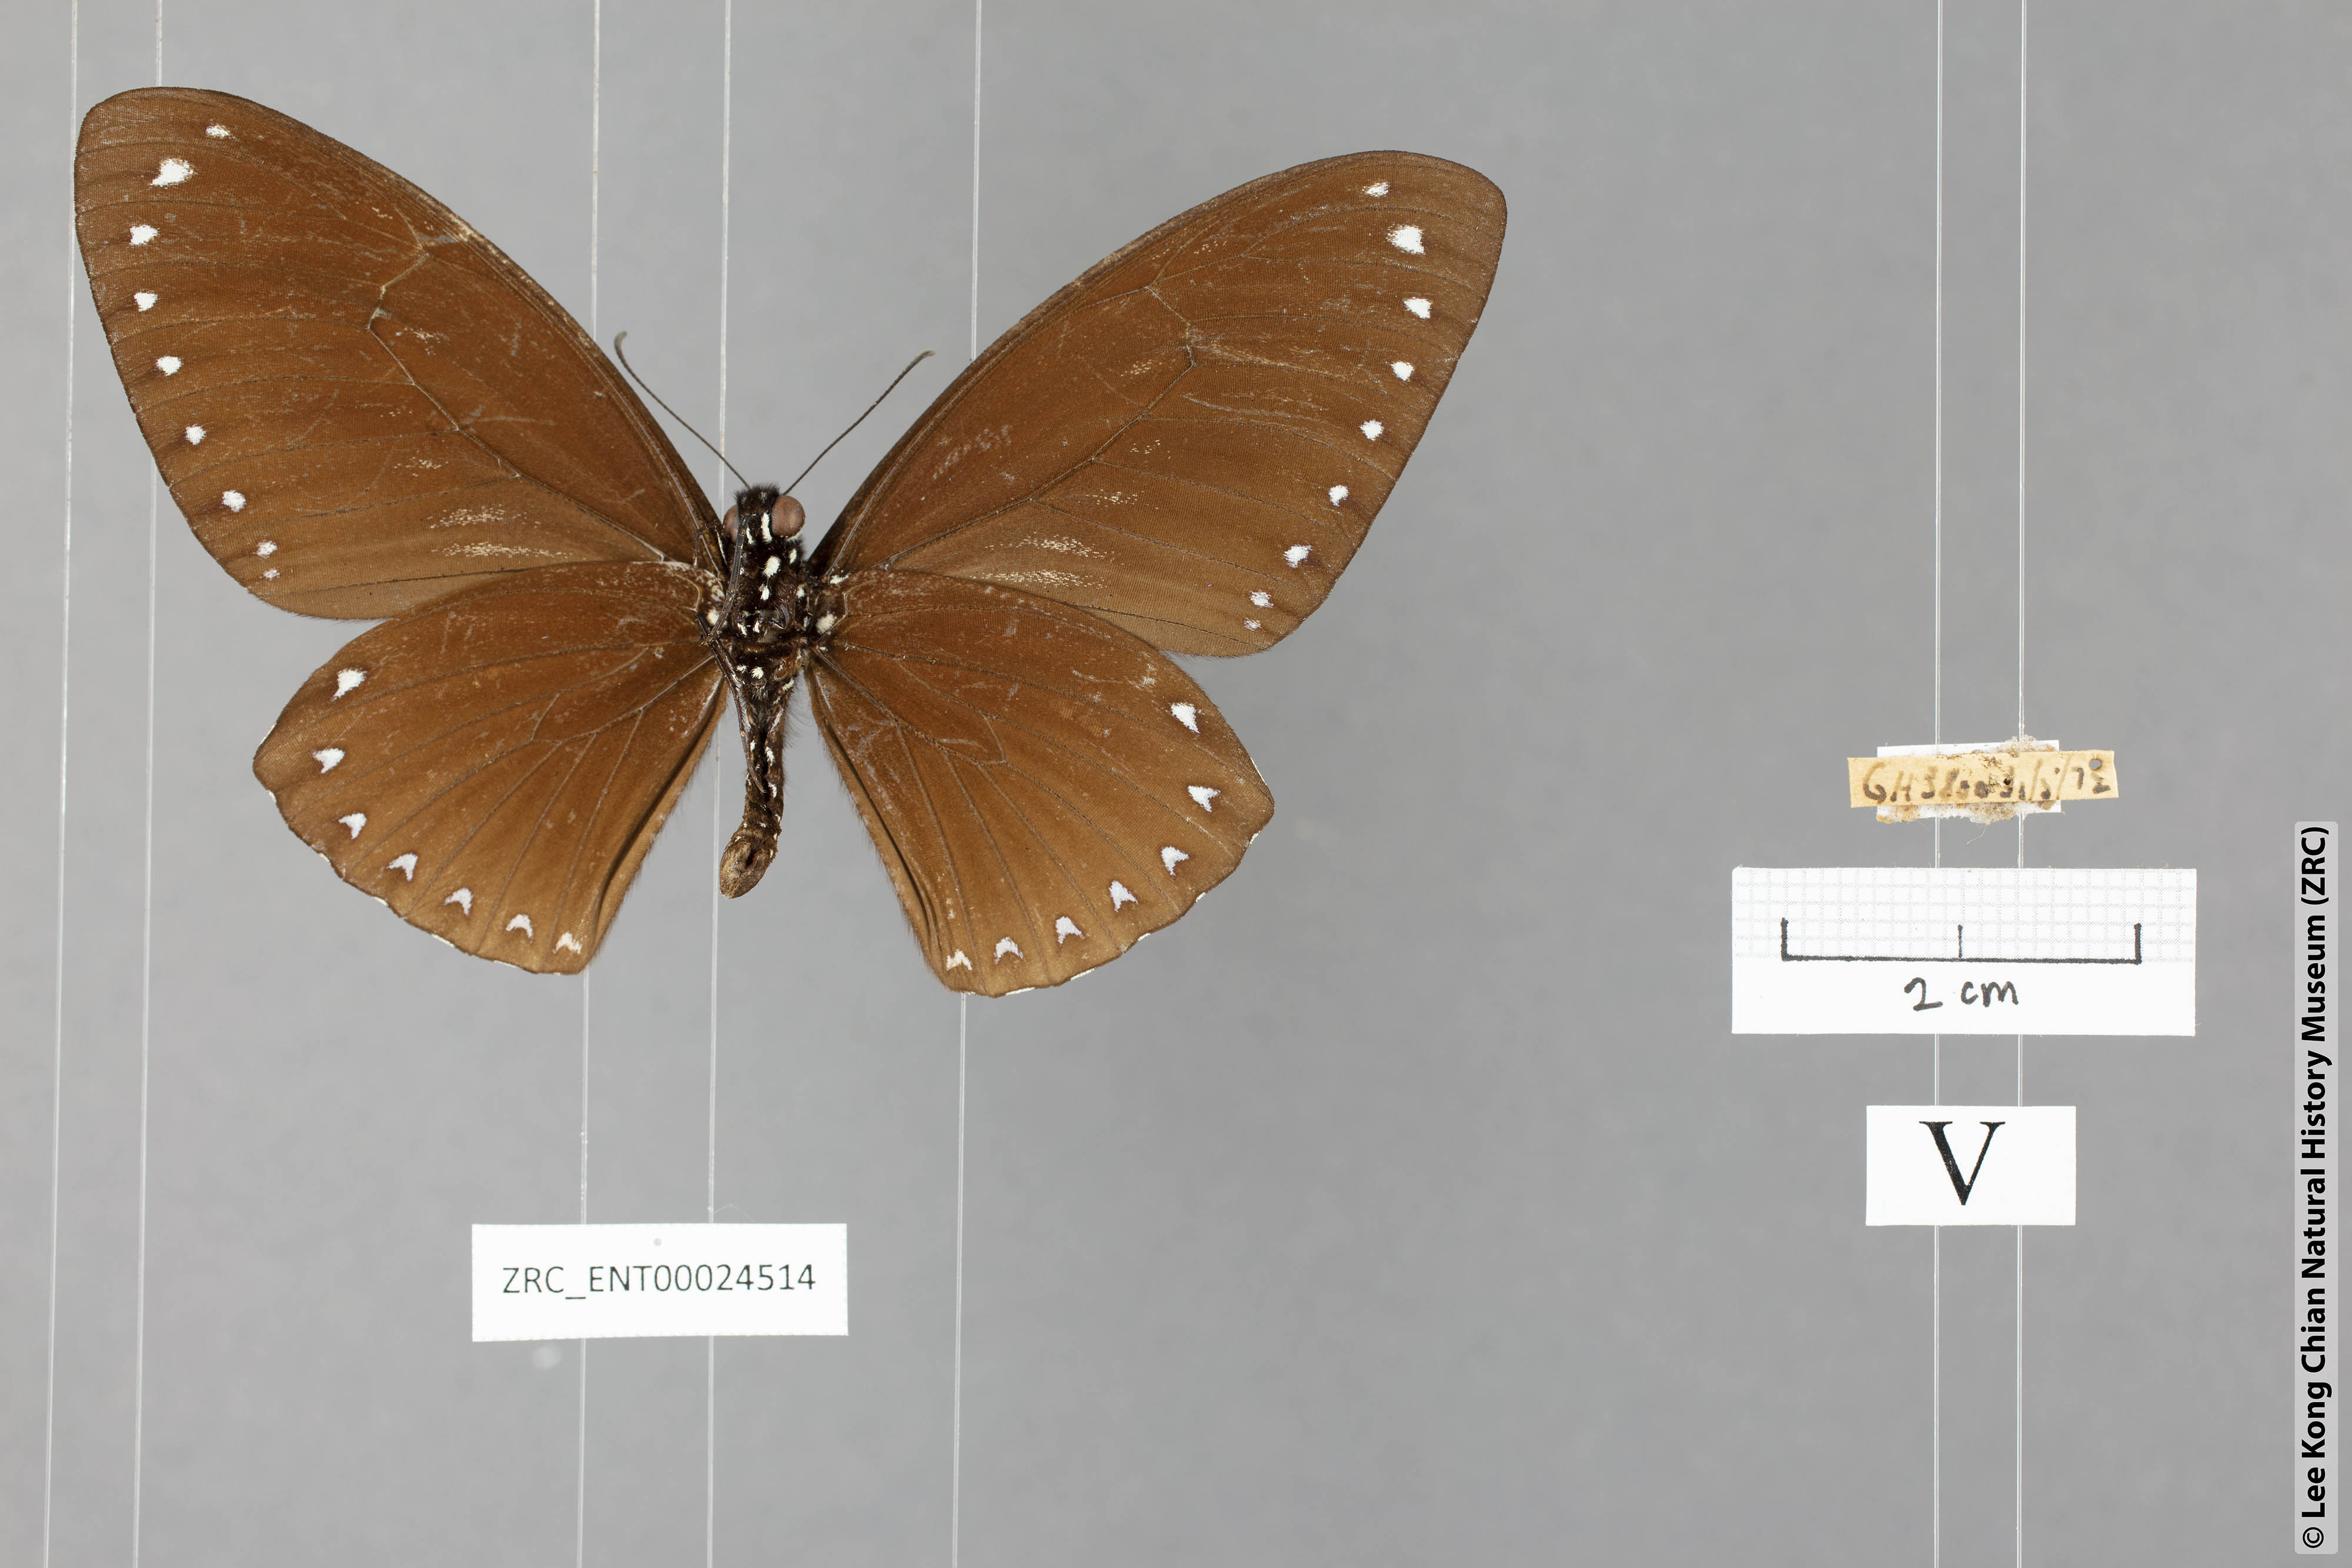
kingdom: Animalia
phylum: Arthropoda
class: Insecta
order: Lepidoptera
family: Papilionidae
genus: Chilasa
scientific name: Chilasa paradoxa
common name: Great mime
